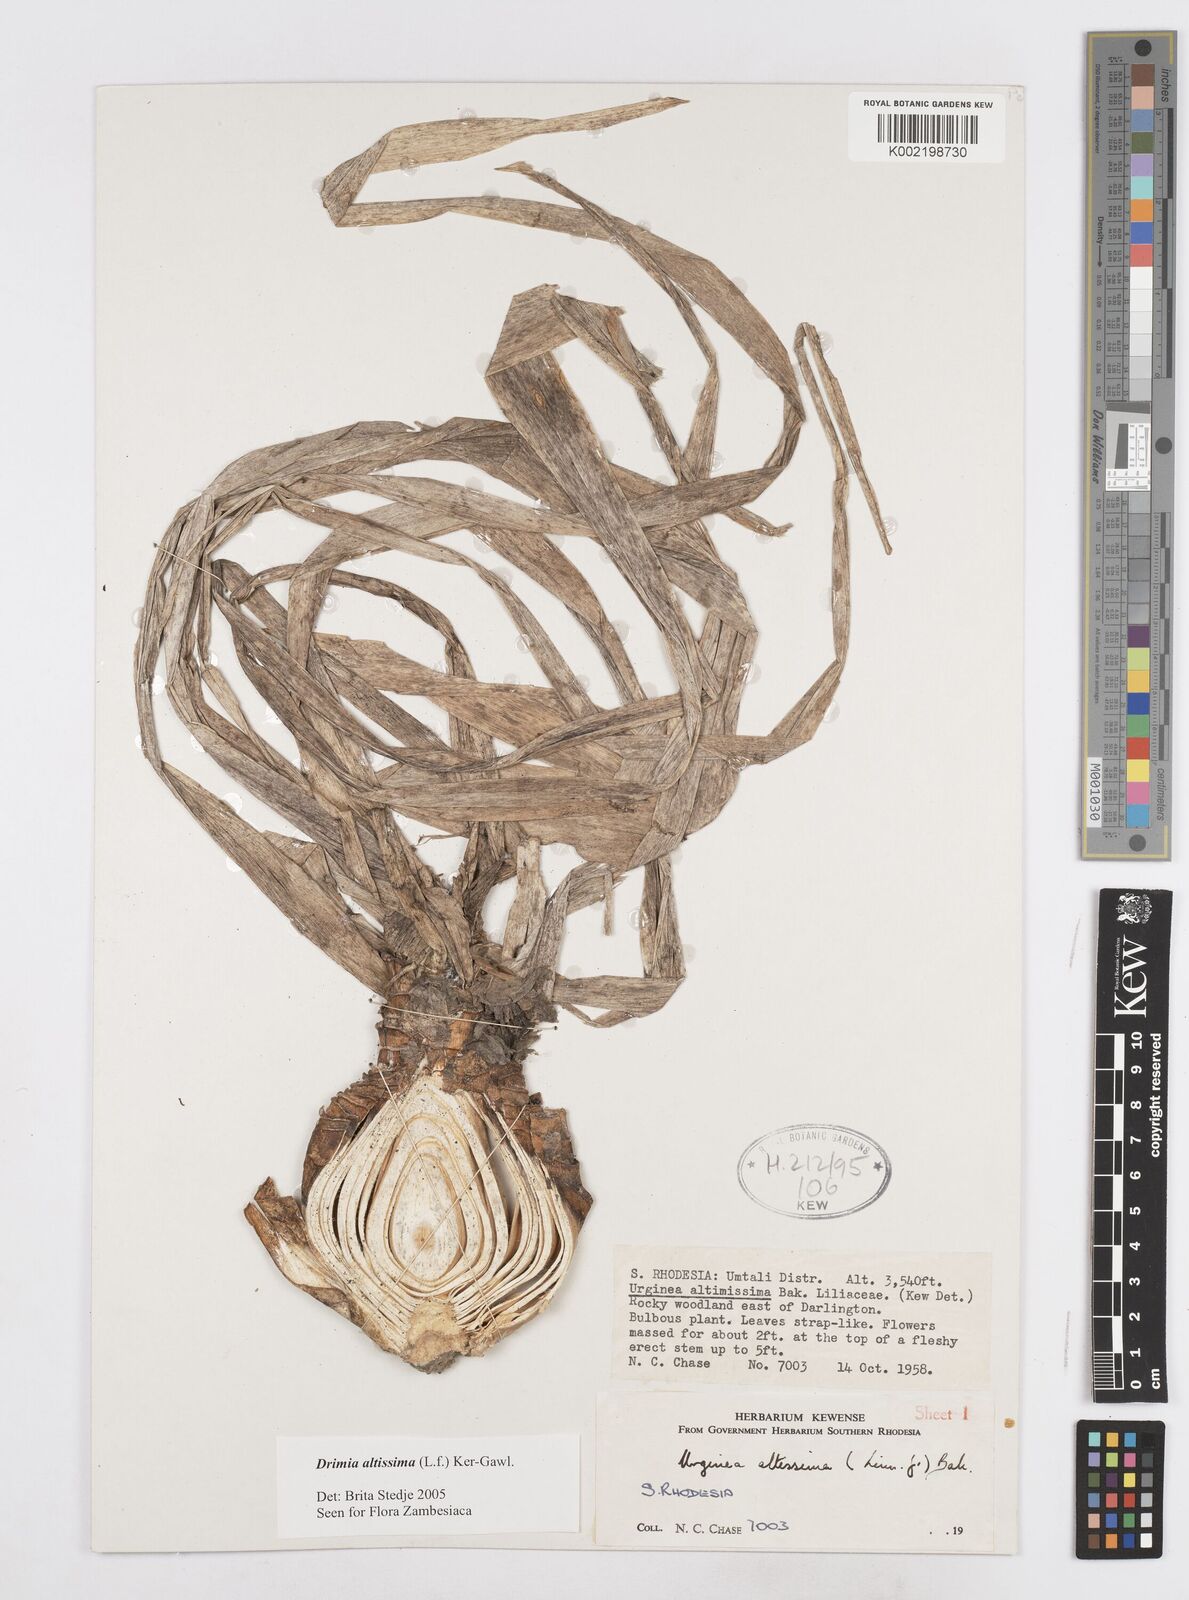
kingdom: Plantae
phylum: Tracheophyta
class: Liliopsida
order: Asparagales
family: Asparagaceae
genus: Drimia
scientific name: Drimia
